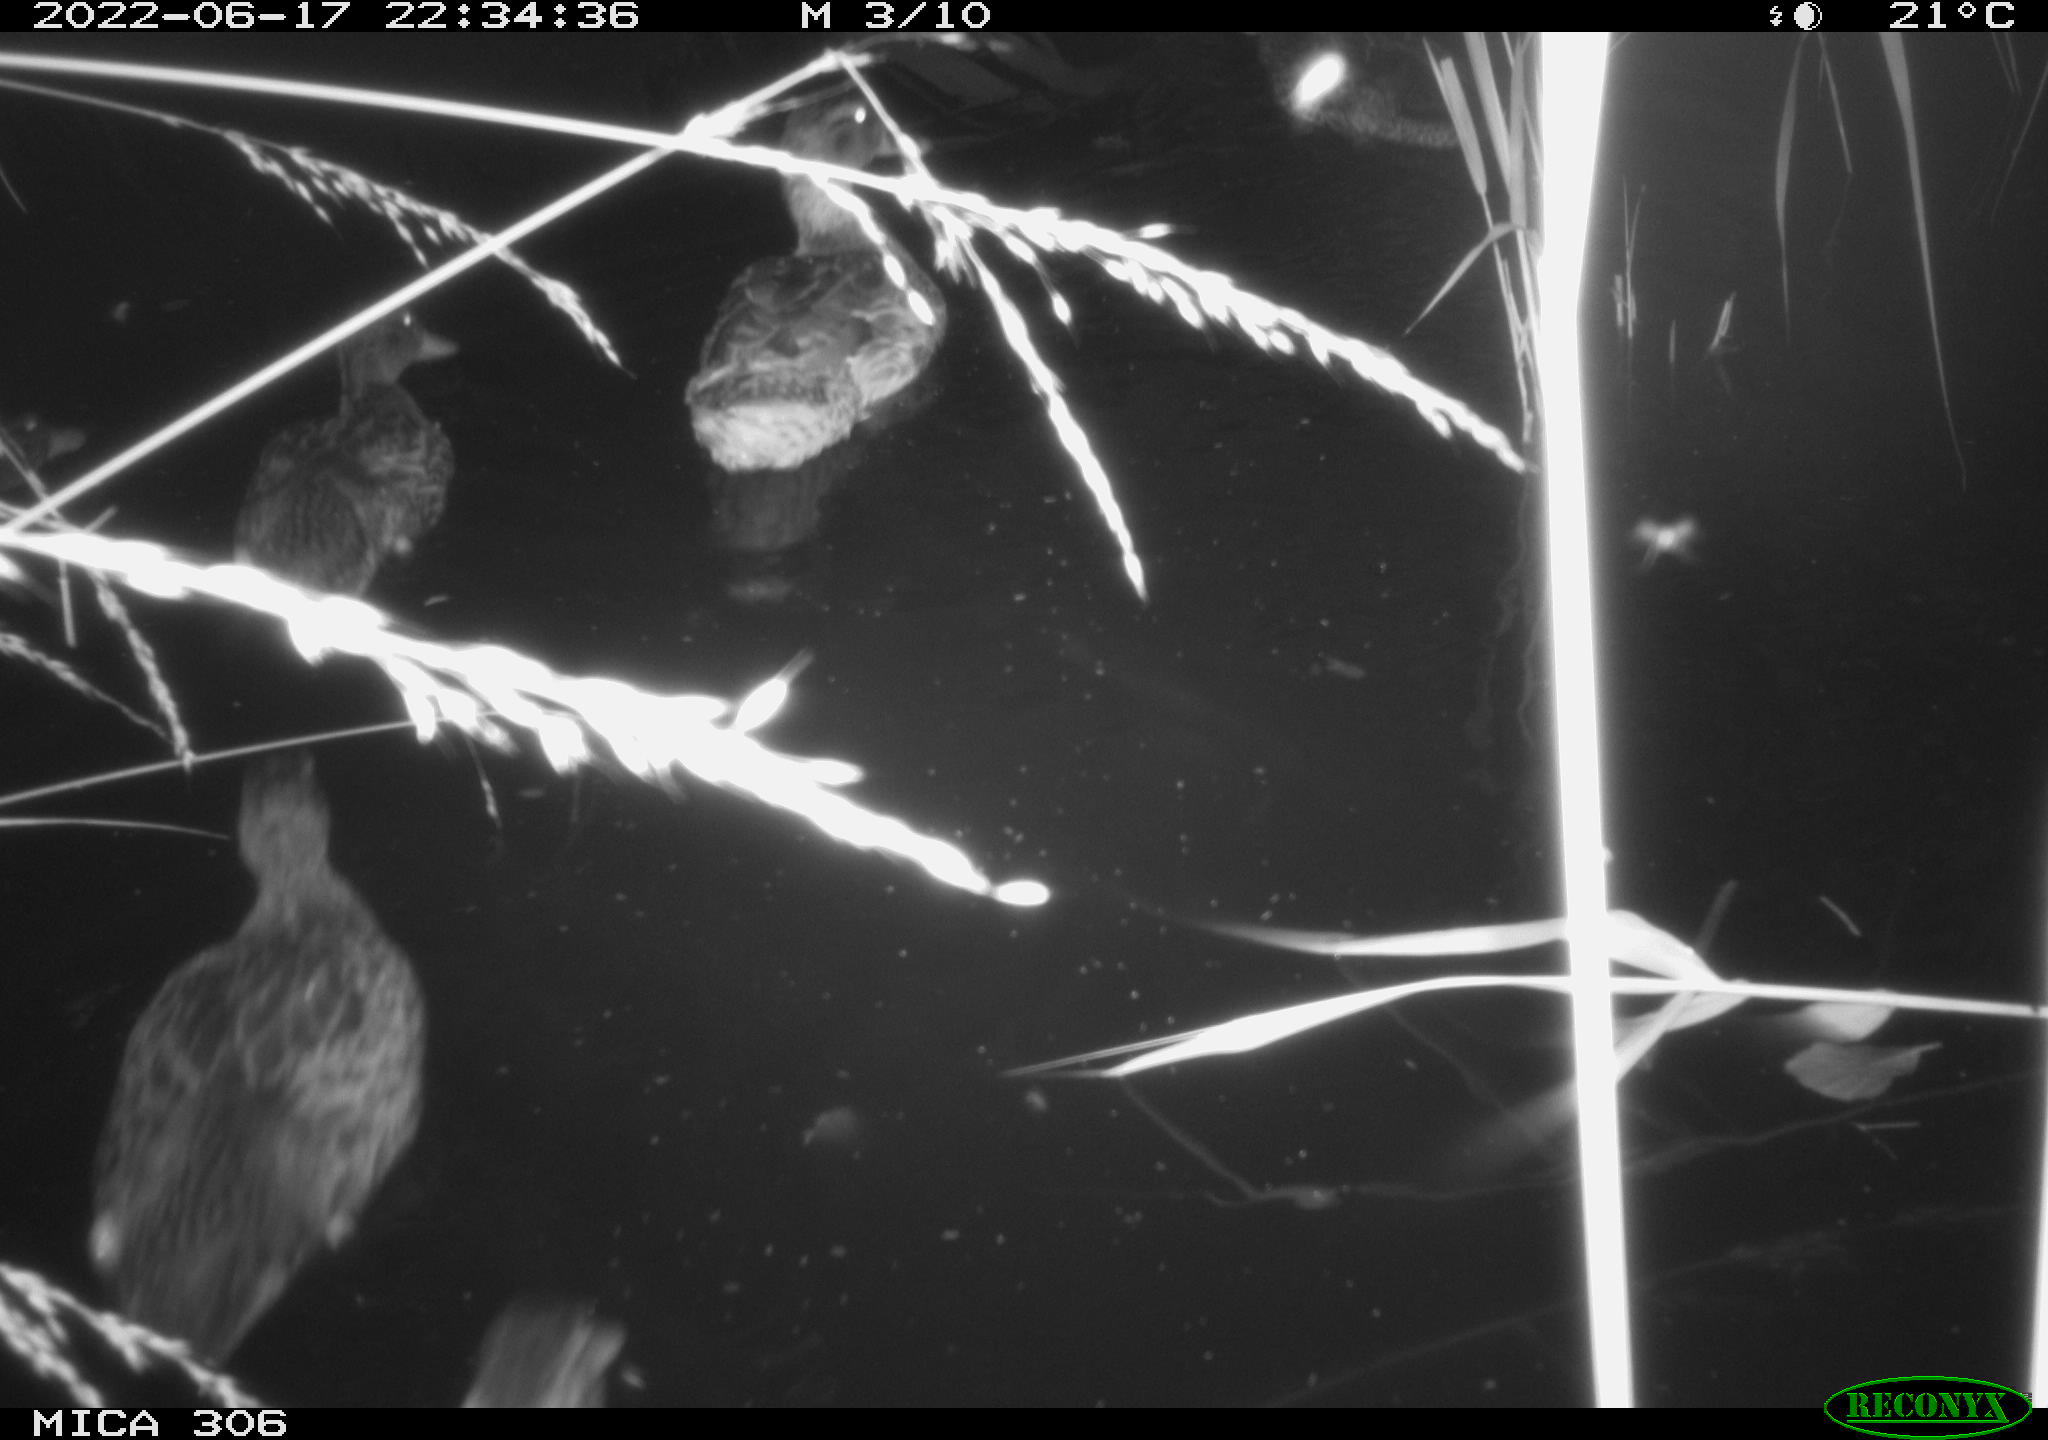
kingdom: Animalia
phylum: Chordata
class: Aves
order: Anseriformes
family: Anatidae
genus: Anas
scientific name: Anas platyrhynchos
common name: Mallard
